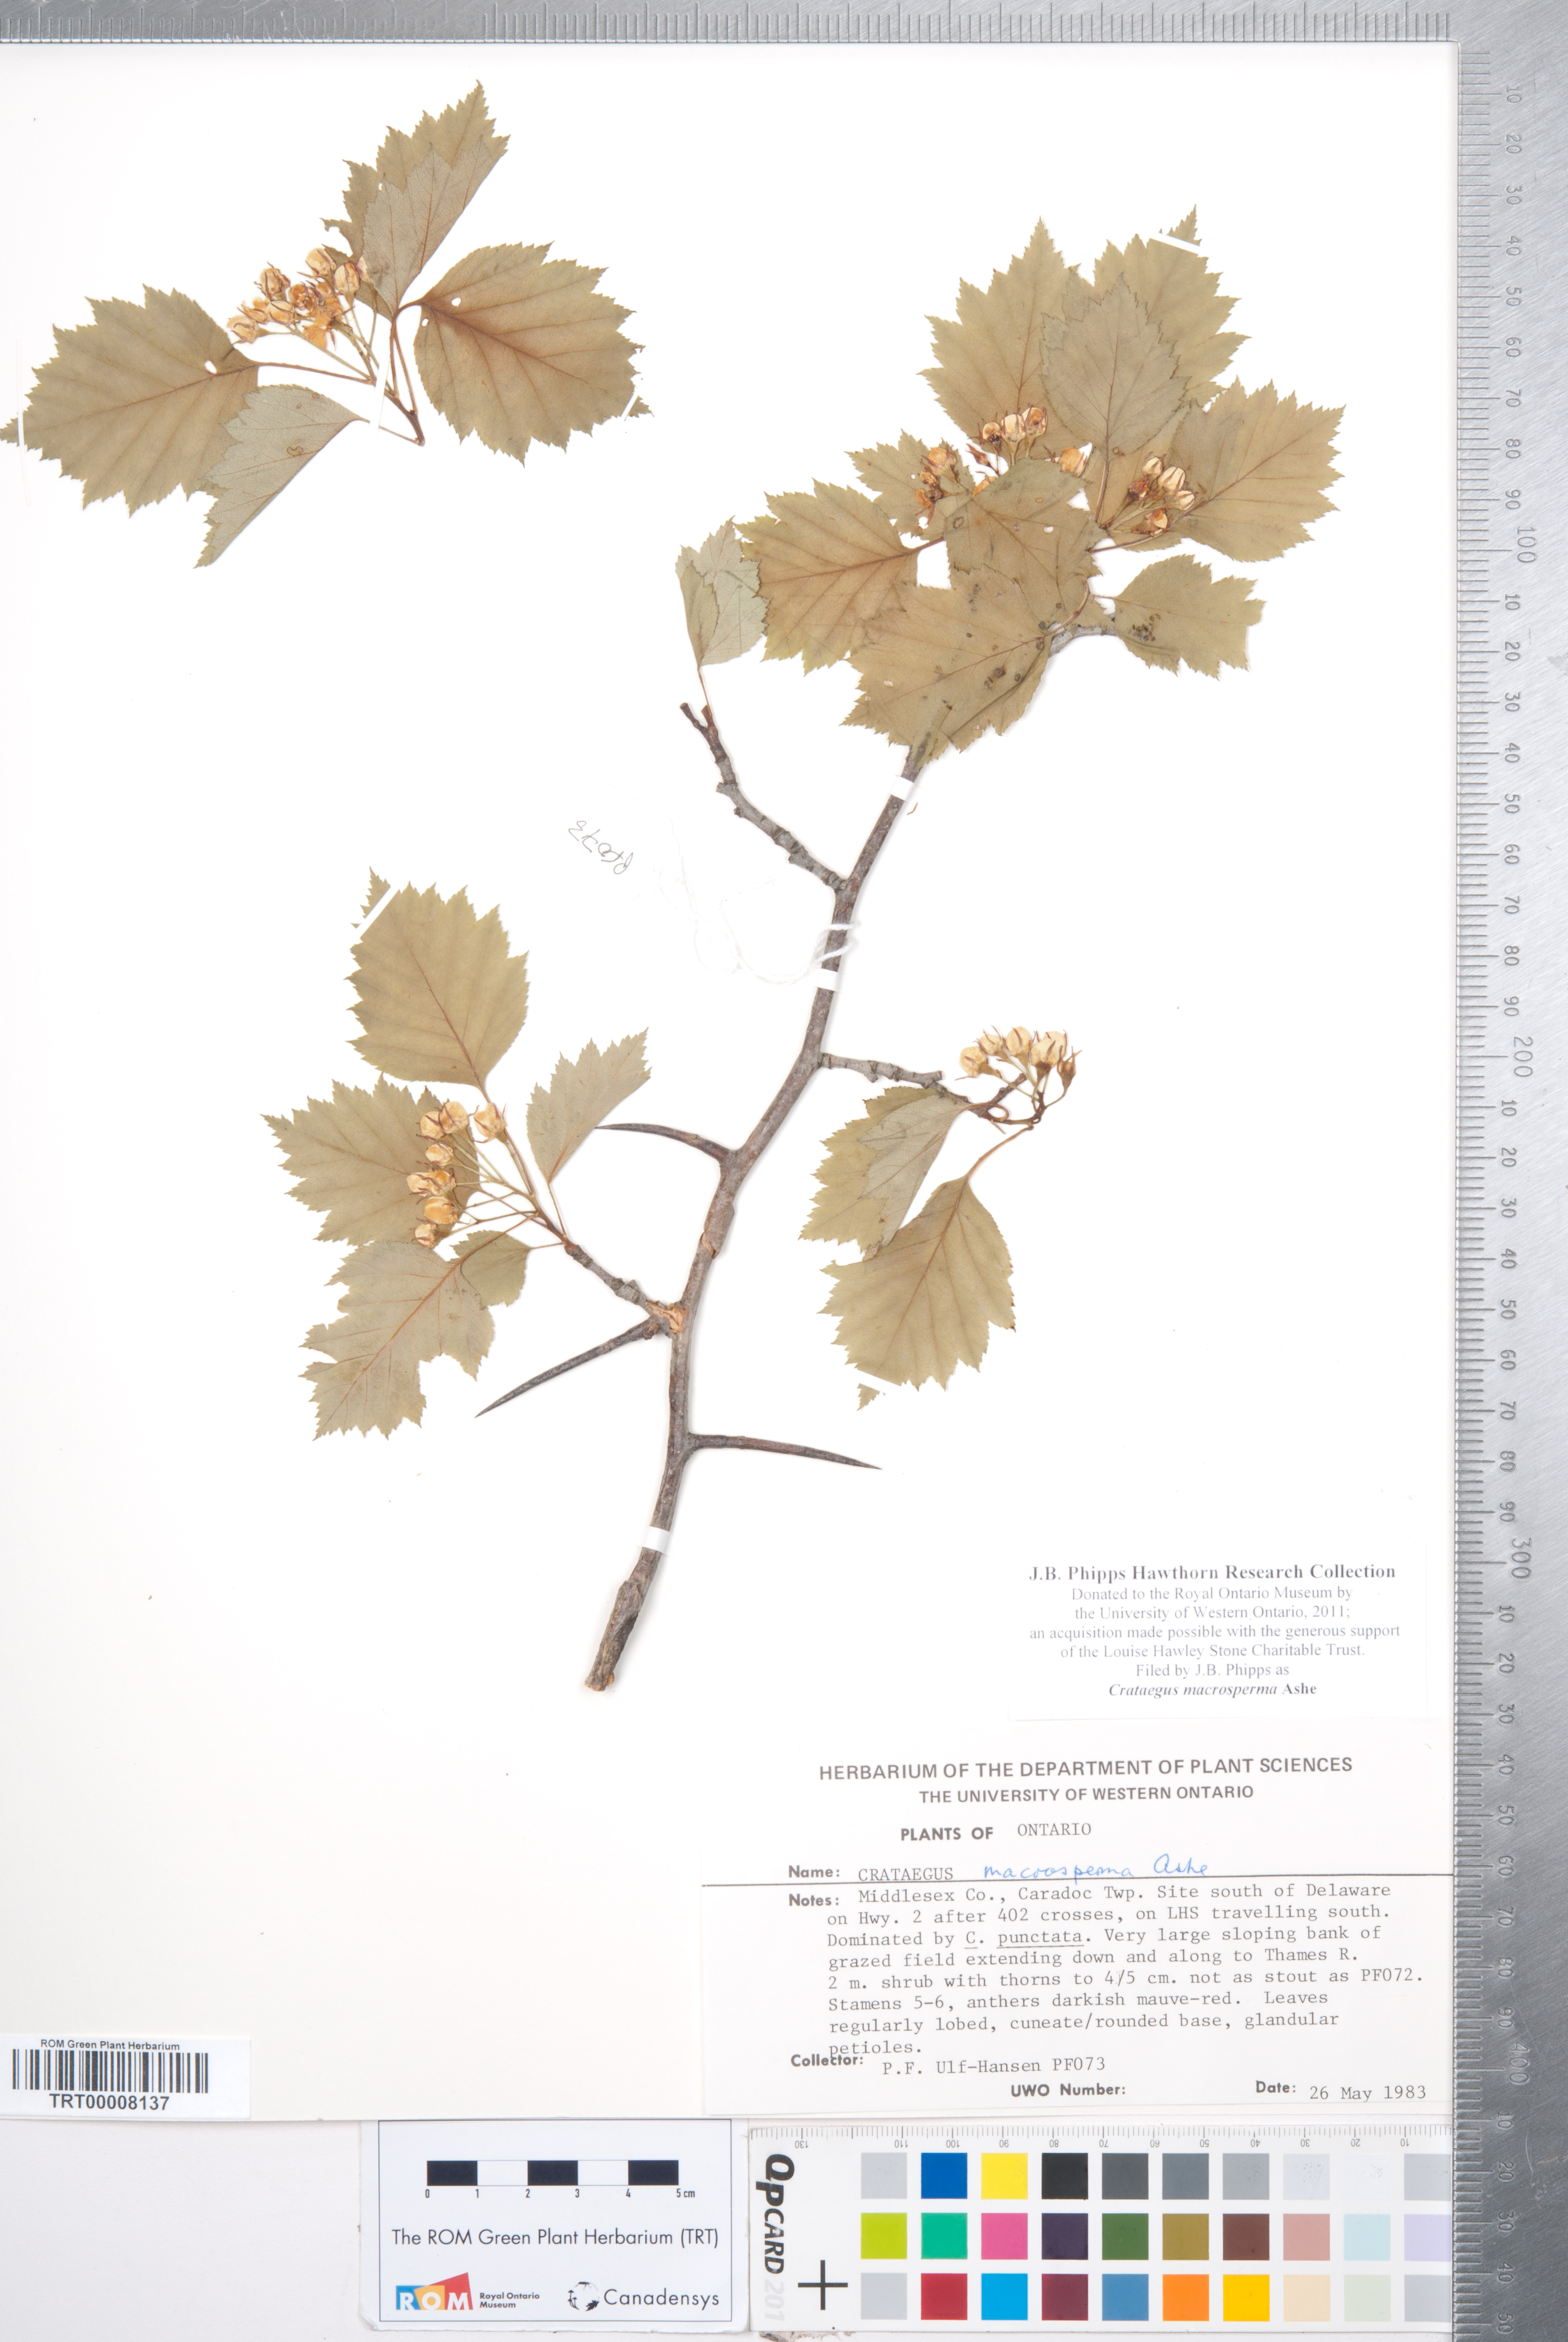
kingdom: Plantae
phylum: Tracheophyta
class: Magnoliopsida
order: Rosales
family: Rosaceae
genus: Crataegus
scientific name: Crataegus macrosperma
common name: Variable hawthorn
